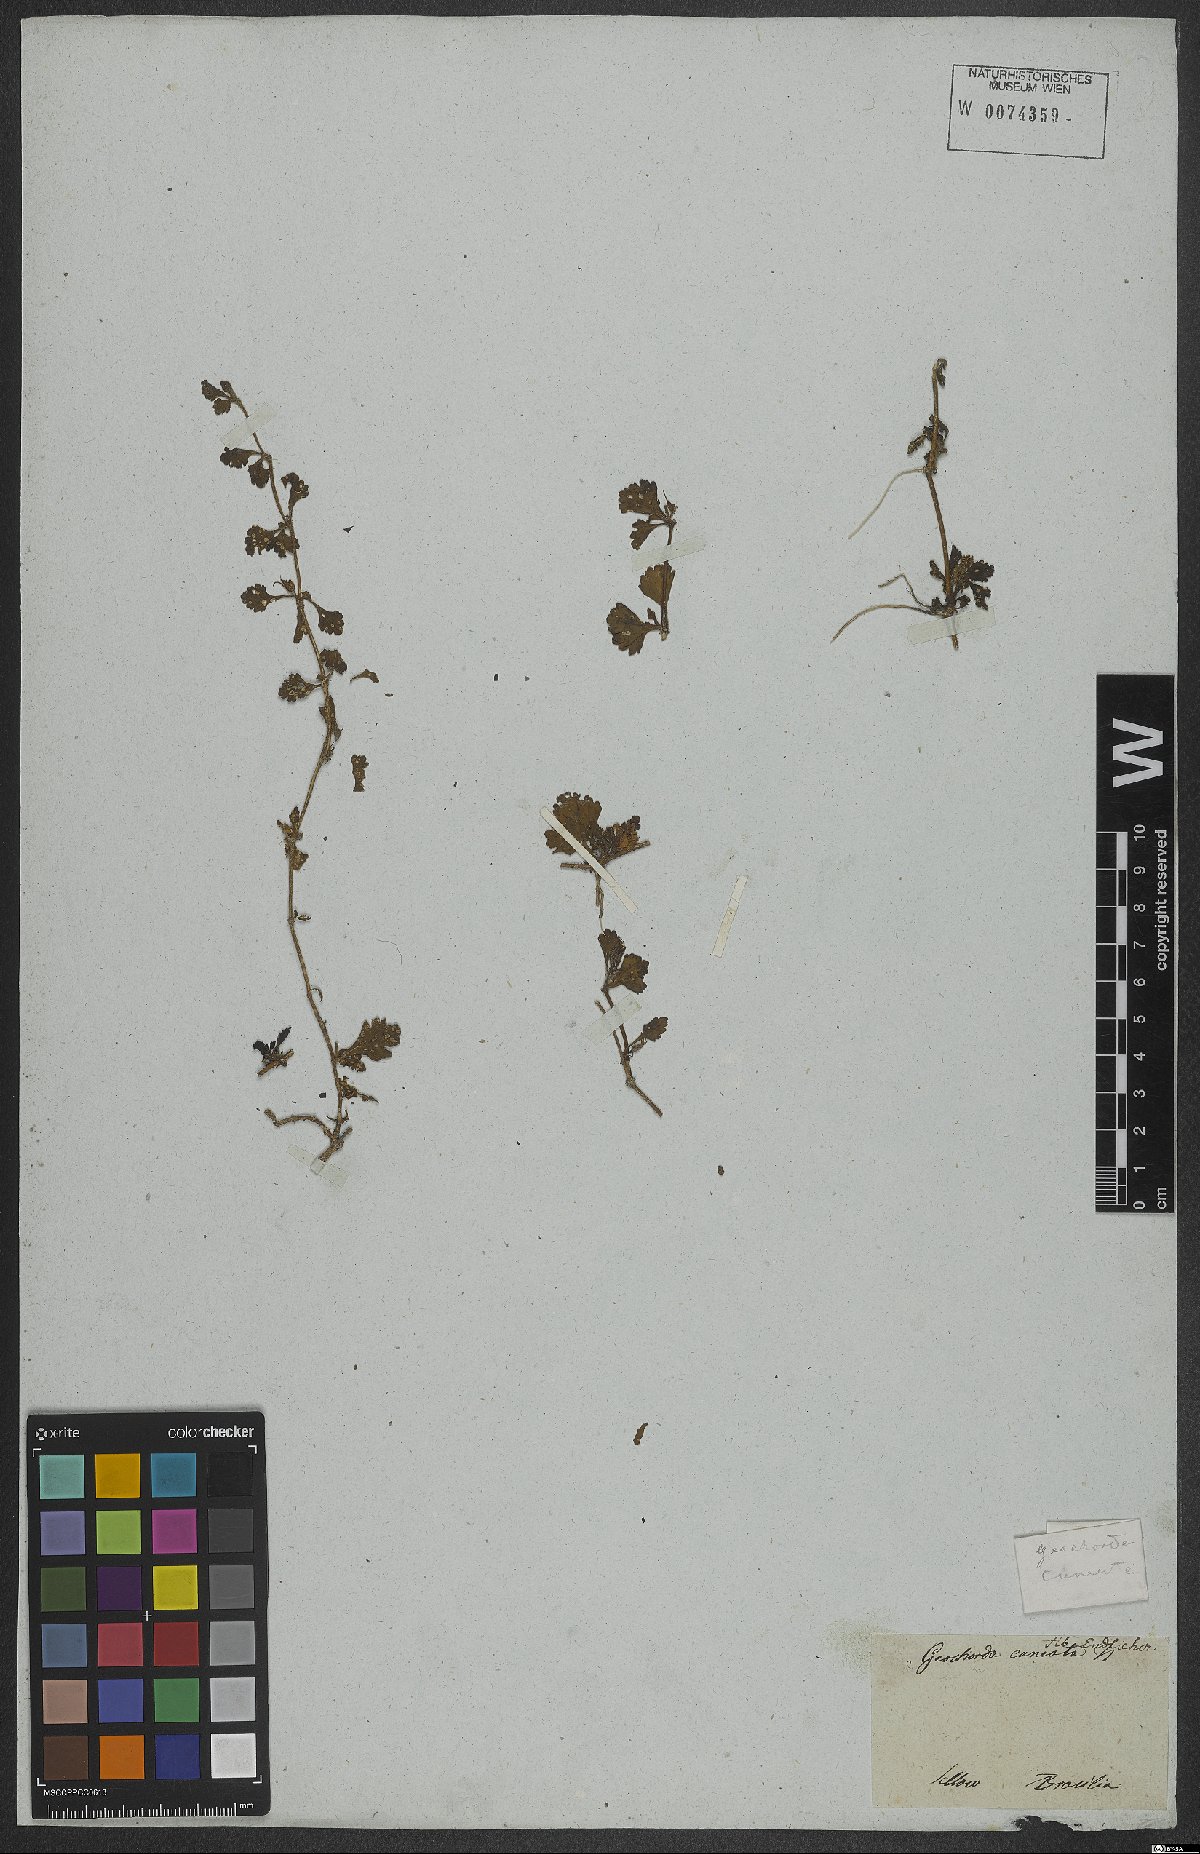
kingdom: Plantae
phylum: Tracheophyta
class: Magnoliopsida
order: Lamiales
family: Plantaginaceae
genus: Conobea
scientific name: Conobea glechomoides
